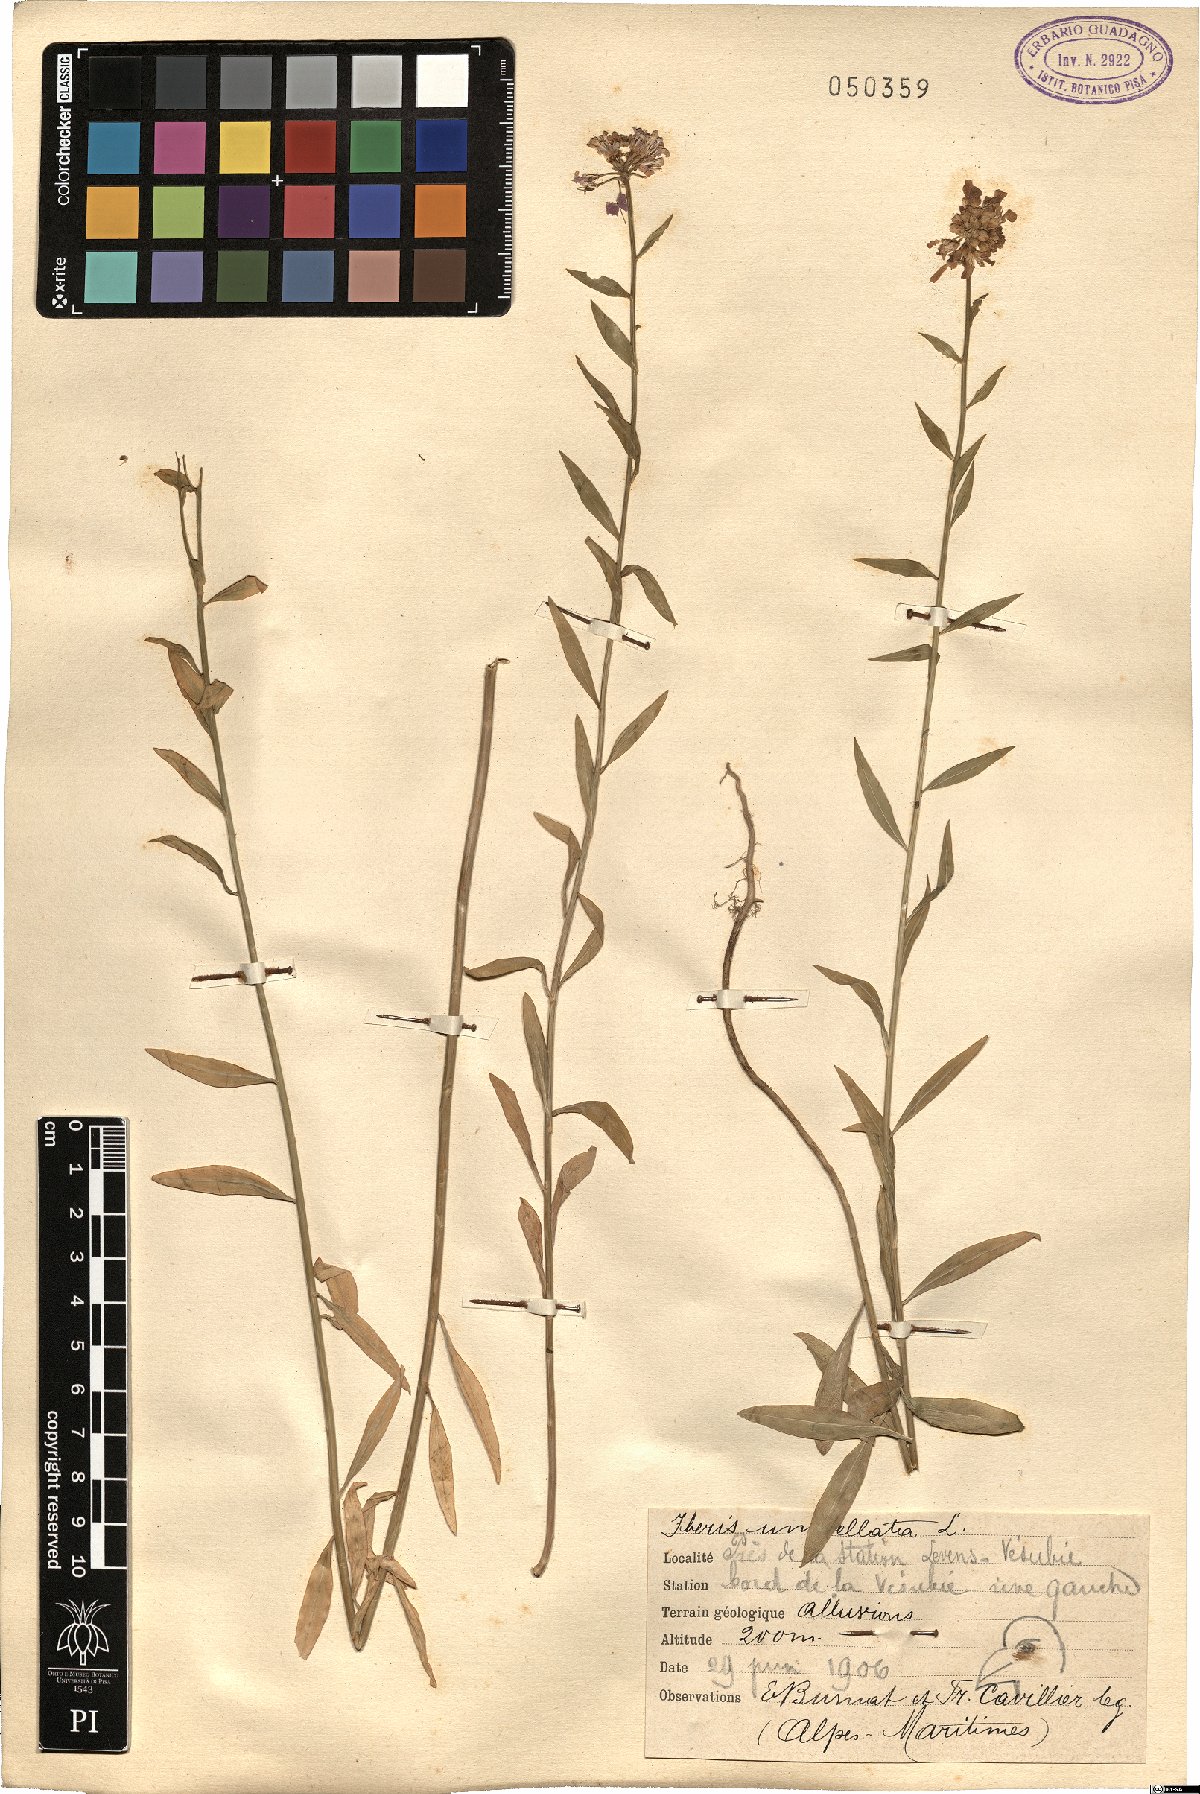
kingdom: Plantae
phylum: Tracheophyta
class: Magnoliopsida
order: Brassicales
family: Brassicaceae
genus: Iberis
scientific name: Iberis umbellata
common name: Globe candytuft
